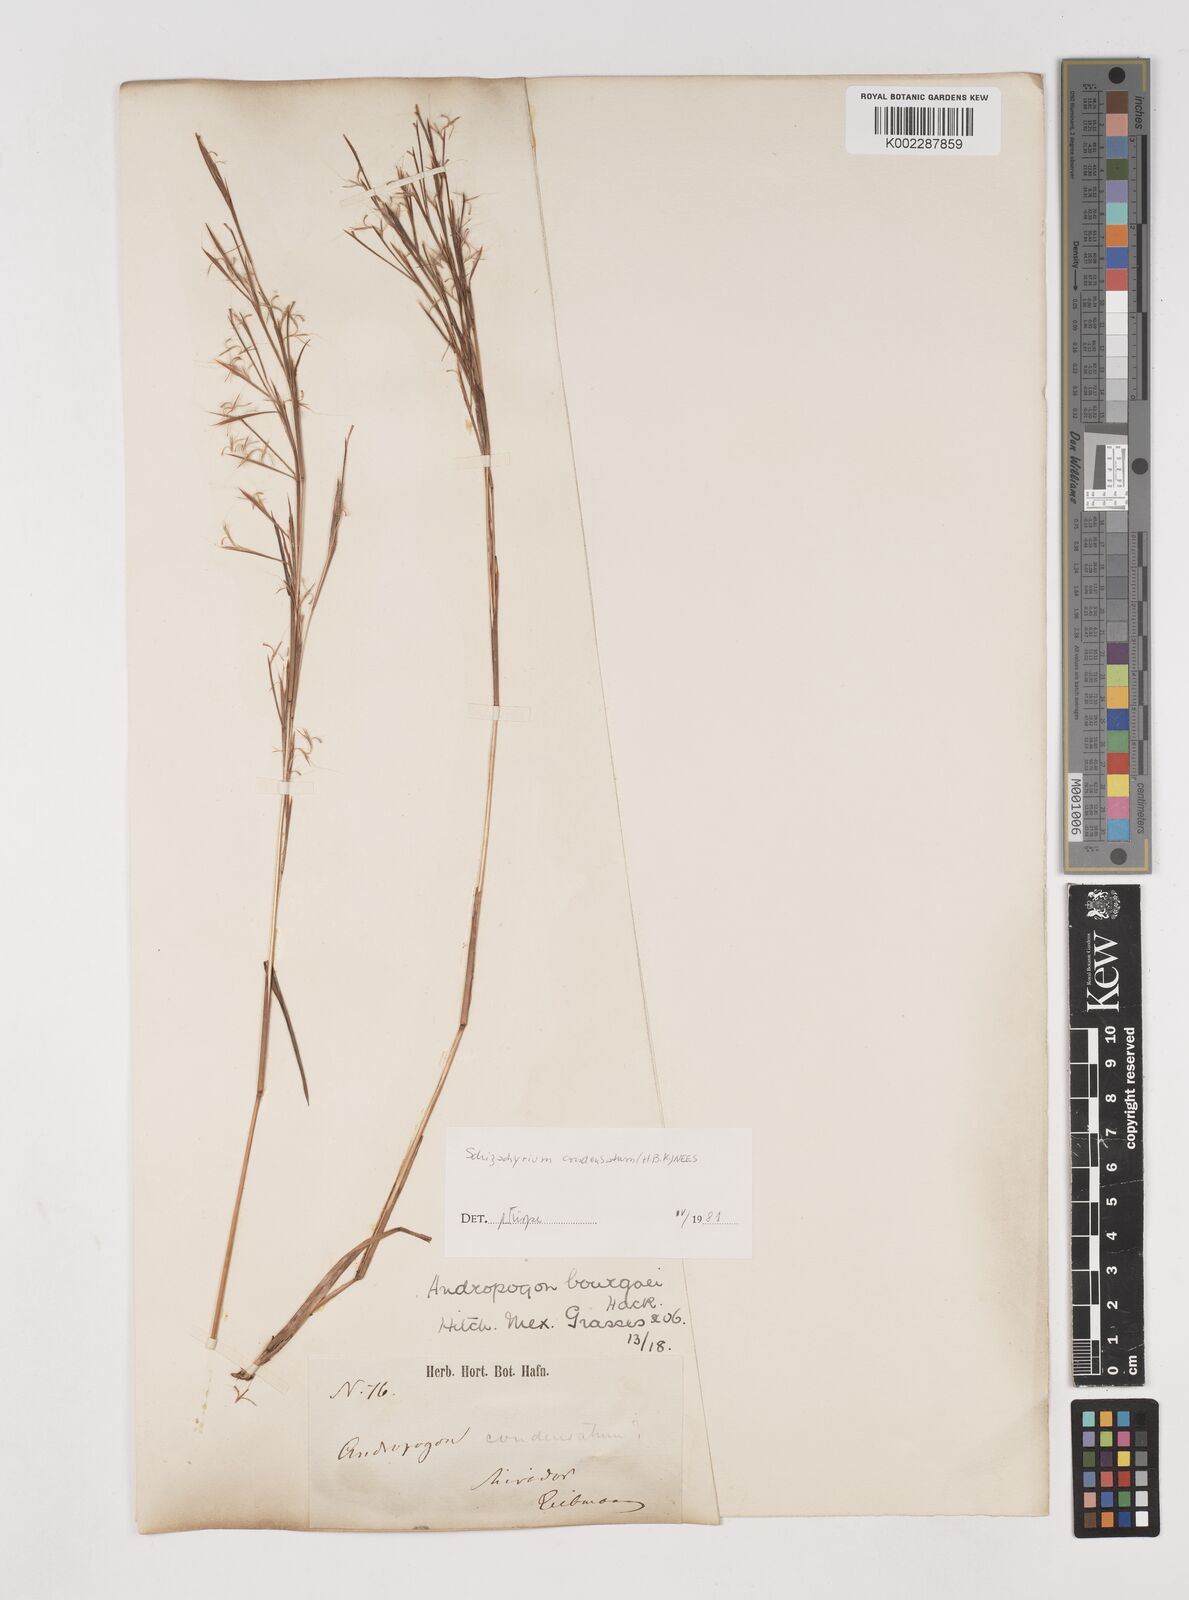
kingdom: Plantae
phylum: Tracheophyta
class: Liliopsida
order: Poales
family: Poaceae
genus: Schizachyrium
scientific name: Schizachyrium condensatum
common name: Bush beardgrass
